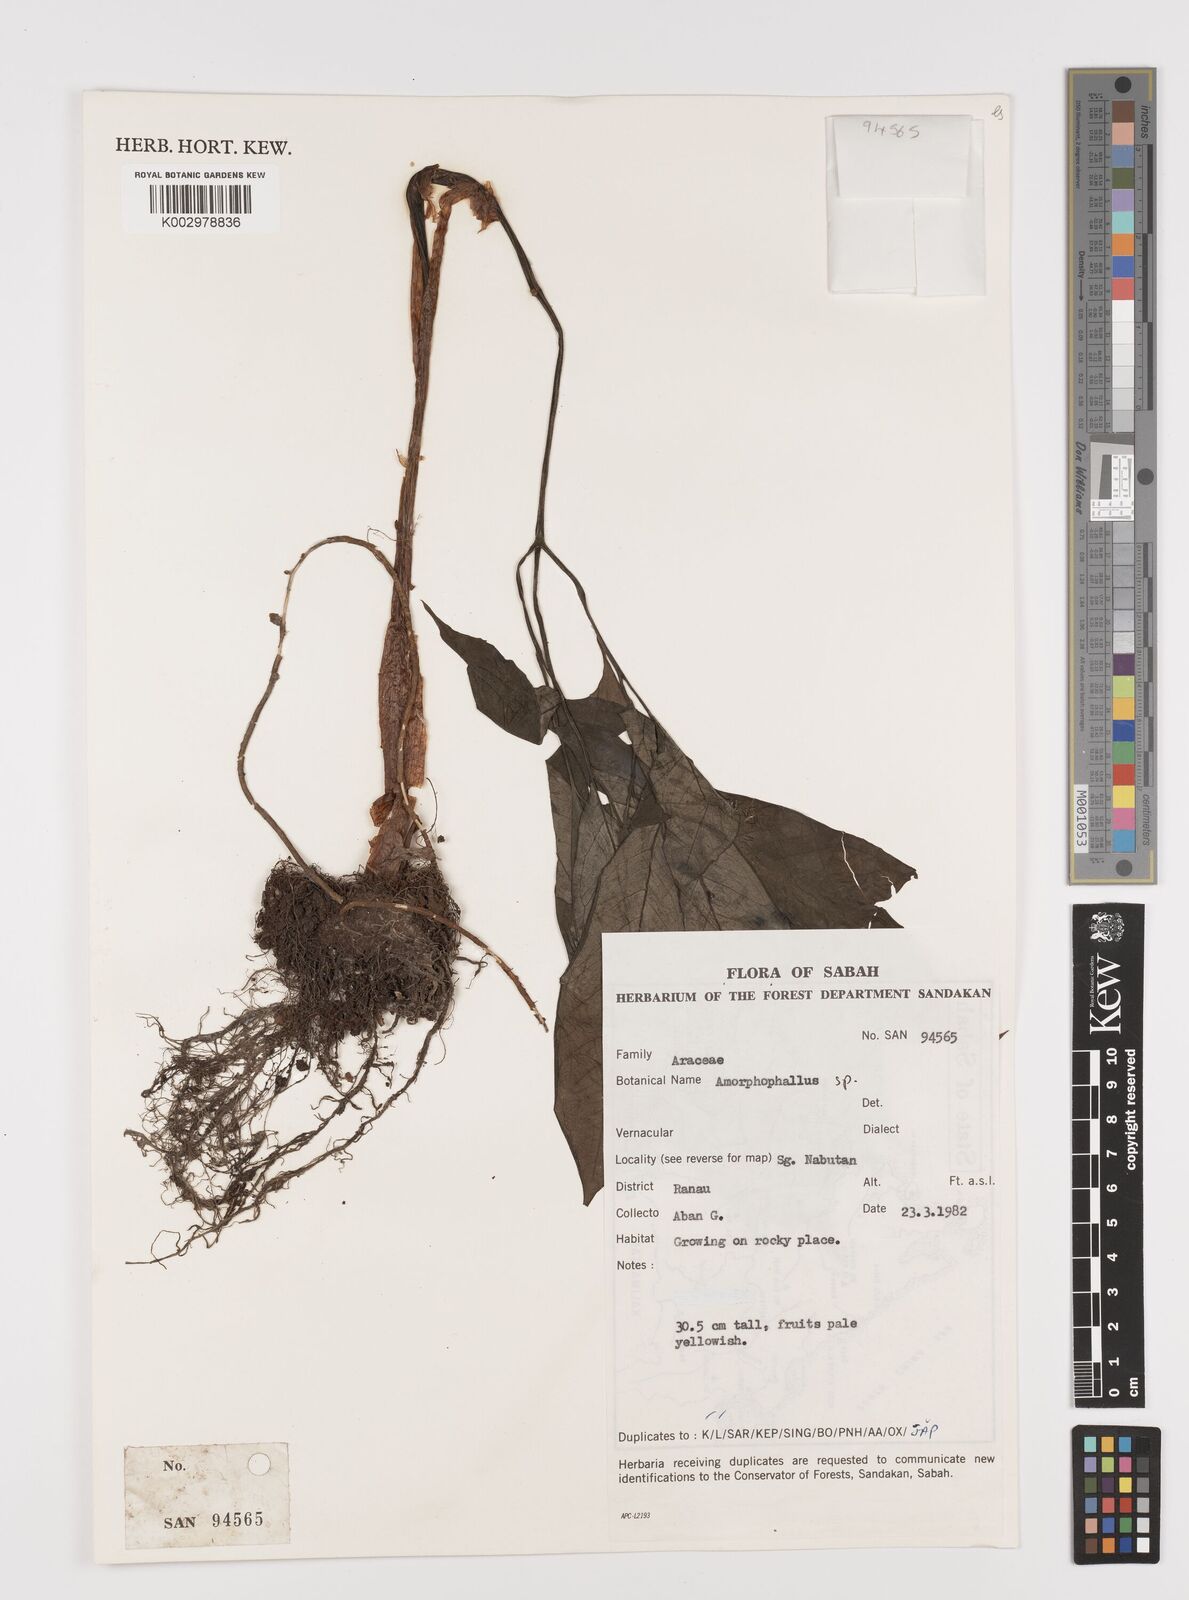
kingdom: Plantae
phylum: Tracheophyta
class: Liliopsida
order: Alismatales
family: Araceae
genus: Amorphophallus
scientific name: Amorphophallus
